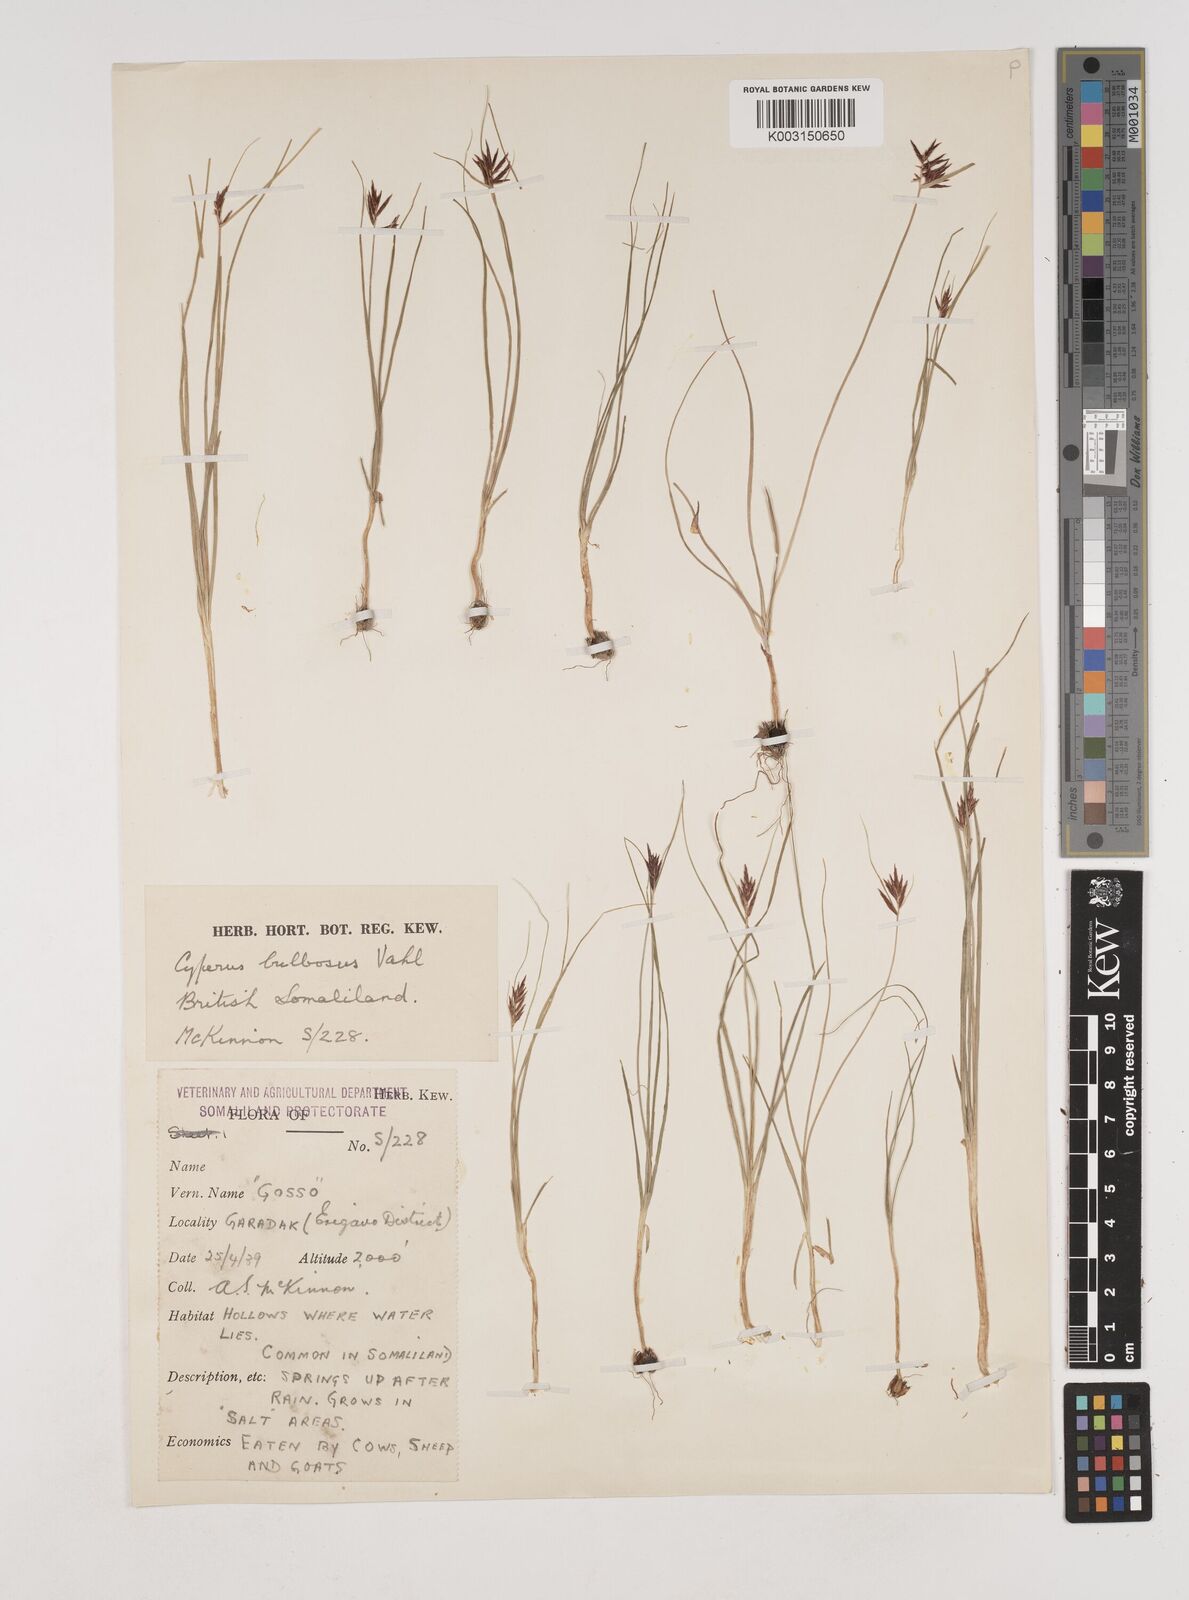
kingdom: Plantae
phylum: Tracheophyta
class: Liliopsida
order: Poales
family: Cyperaceae
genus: Cyperus
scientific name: Cyperus bulbosus
